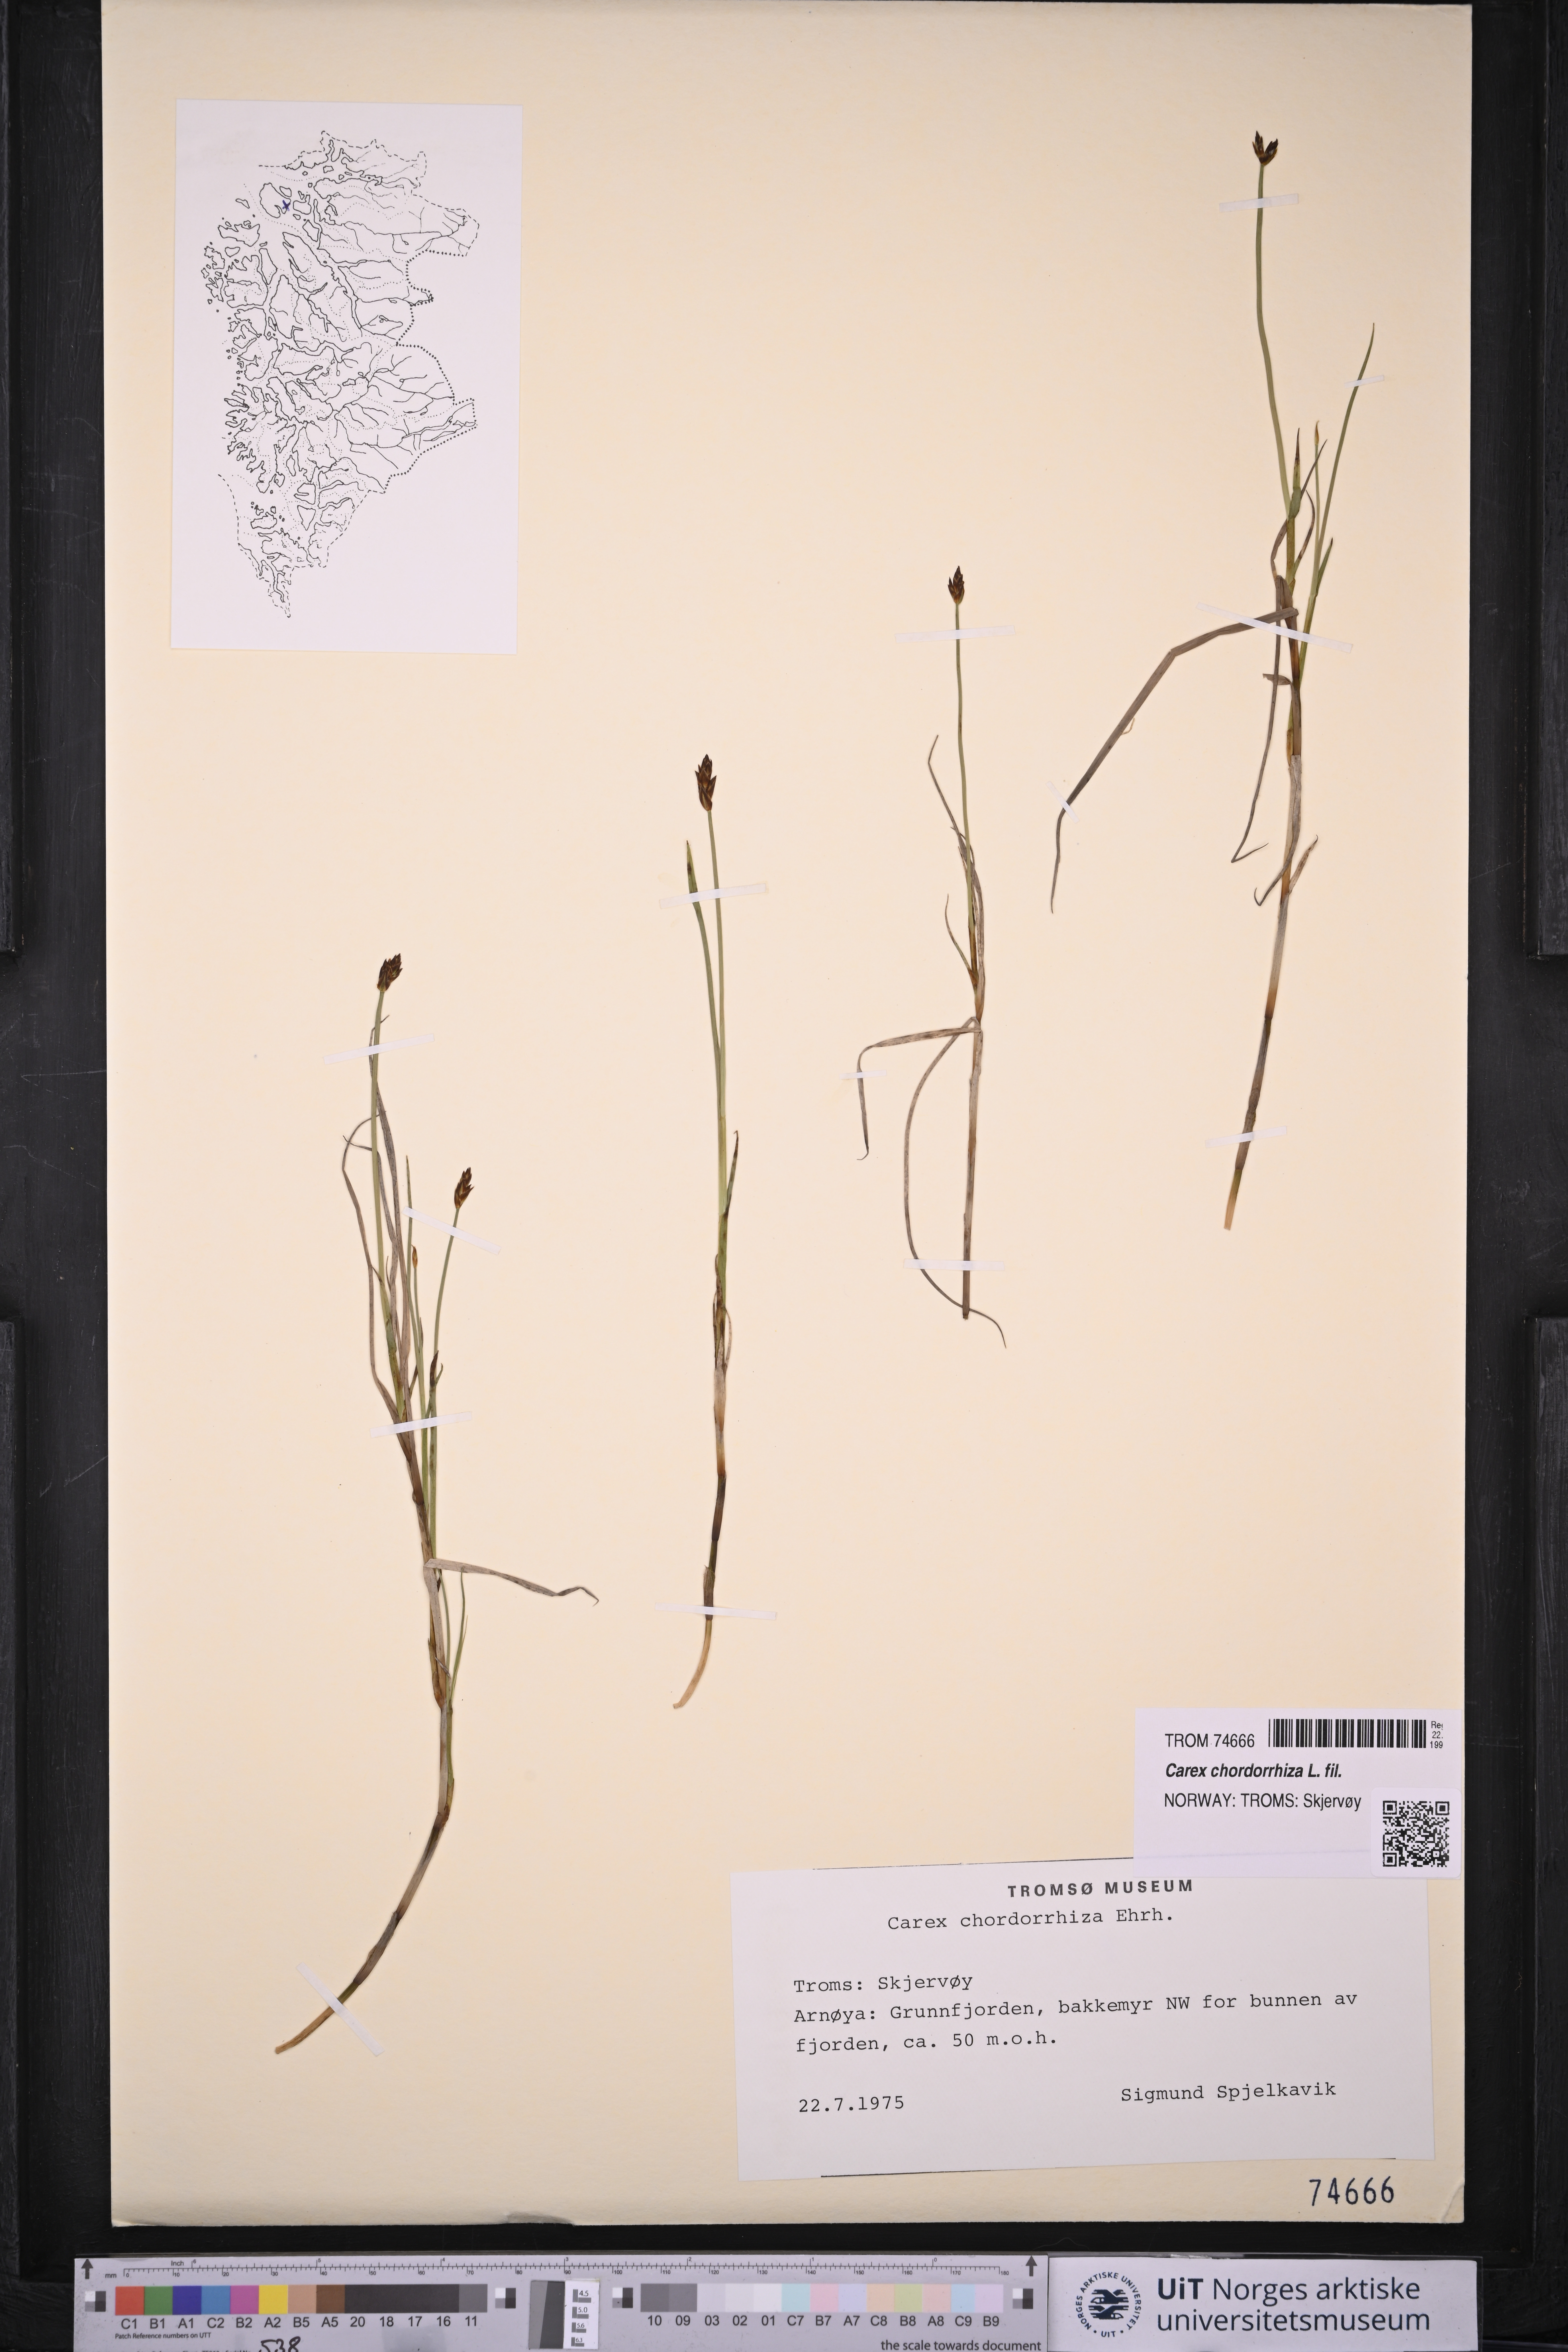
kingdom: Plantae
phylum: Tracheophyta
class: Liliopsida
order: Poales
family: Cyperaceae
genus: Carex
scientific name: Carex chordorrhiza
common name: String sedge
